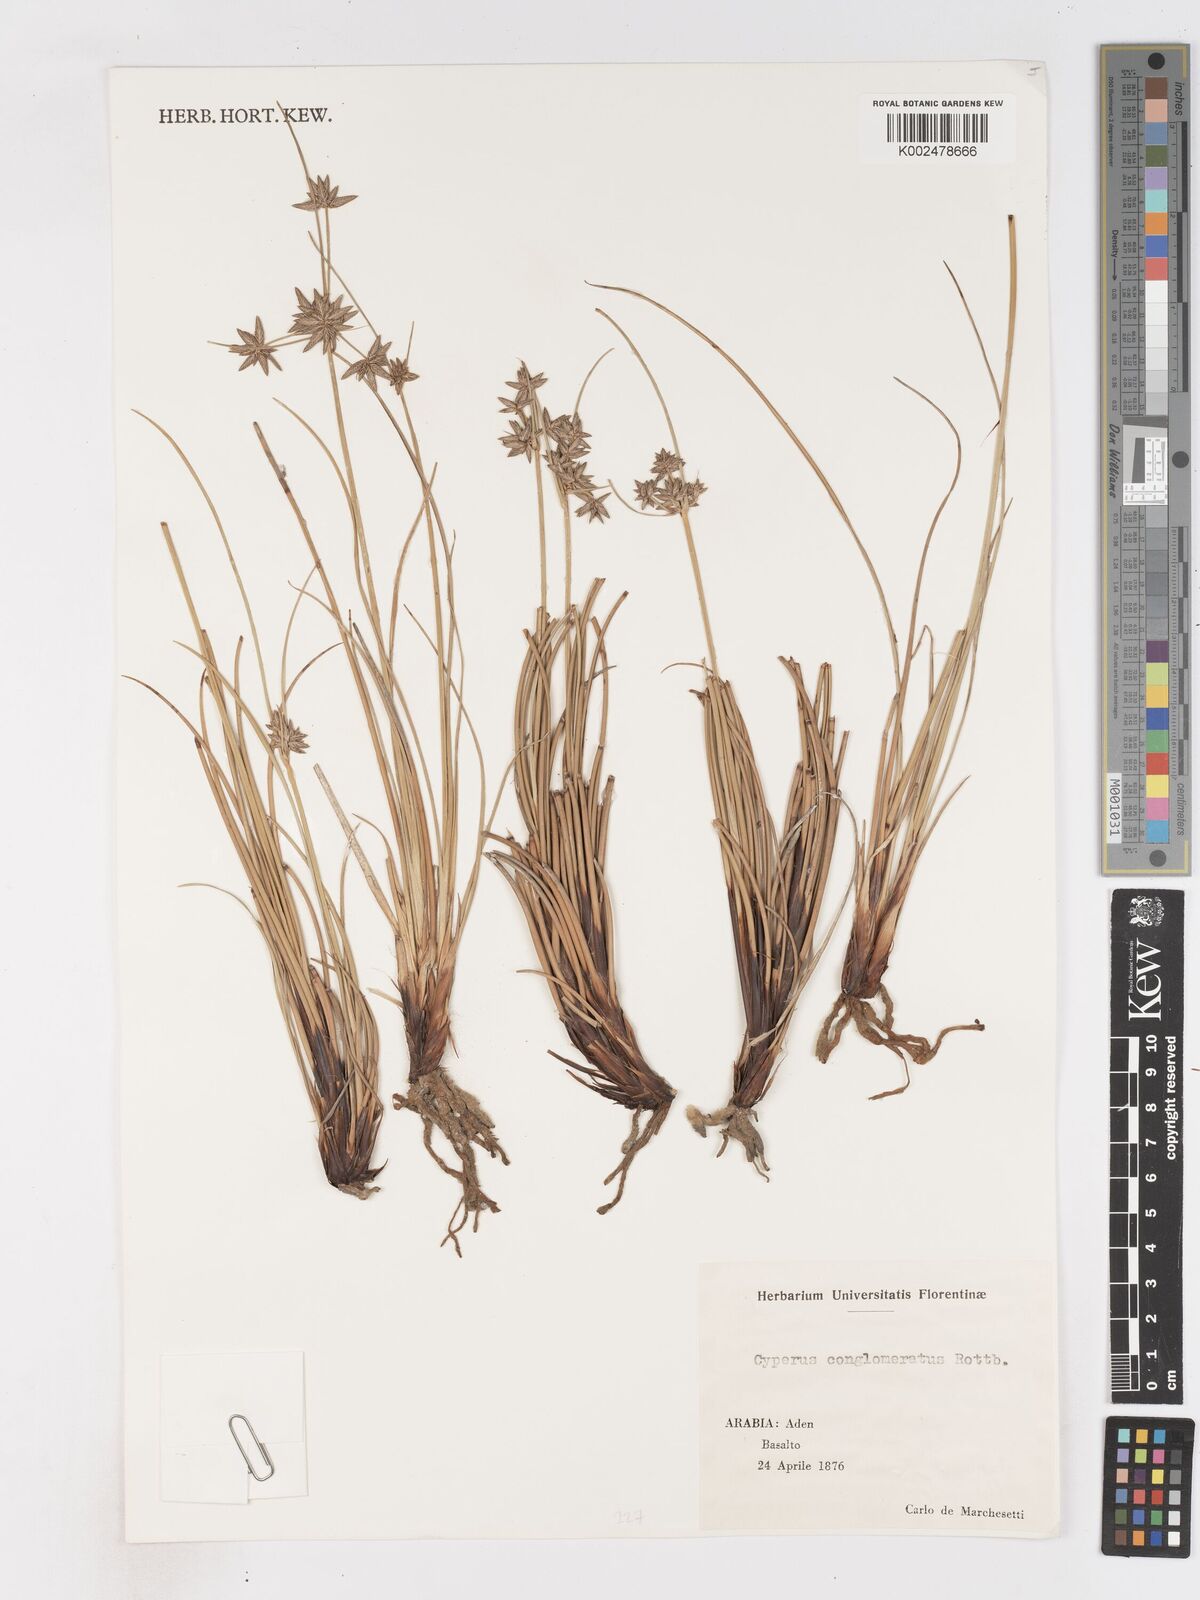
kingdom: Plantae
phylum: Tracheophyta
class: Liliopsida
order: Poales
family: Cyperaceae
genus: Cyperus
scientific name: Cyperus conglomeratus
